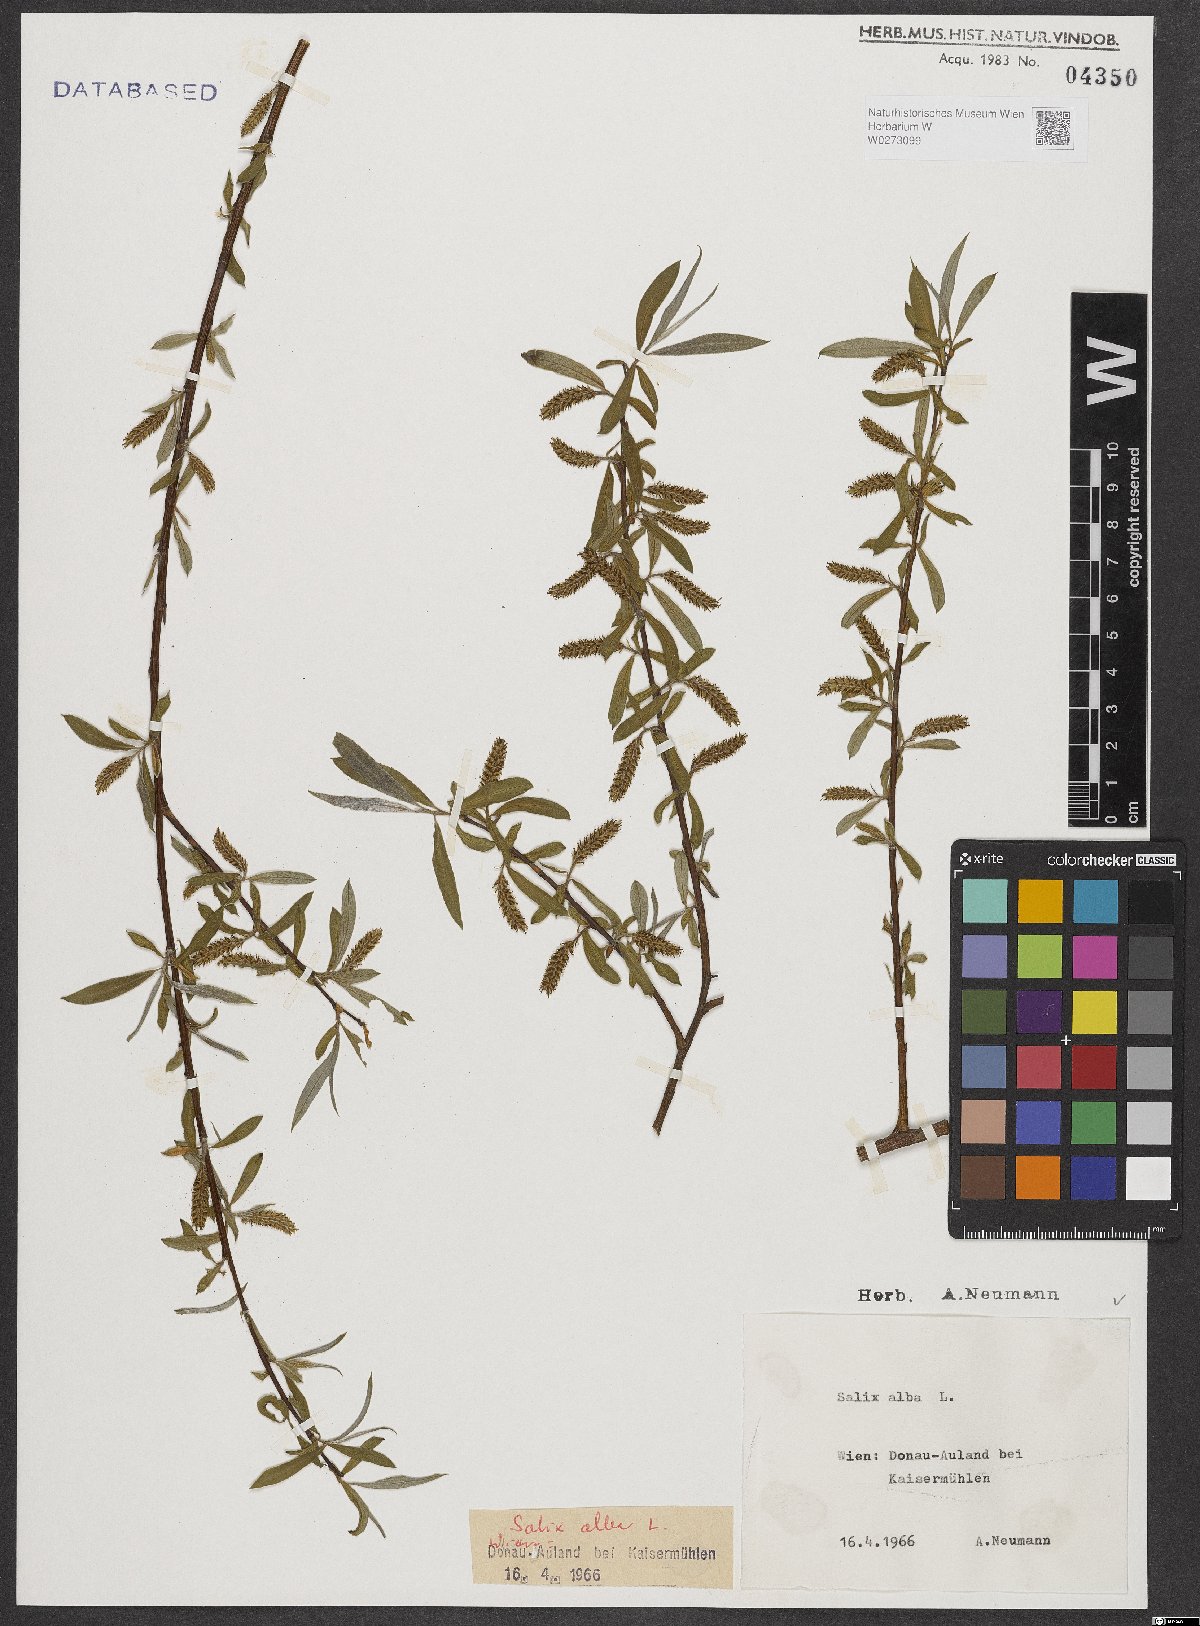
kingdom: Plantae
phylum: Tracheophyta
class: Magnoliopsida
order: Malpighiales
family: Salicaceae
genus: Salix
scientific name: Salix alba
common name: White willow
